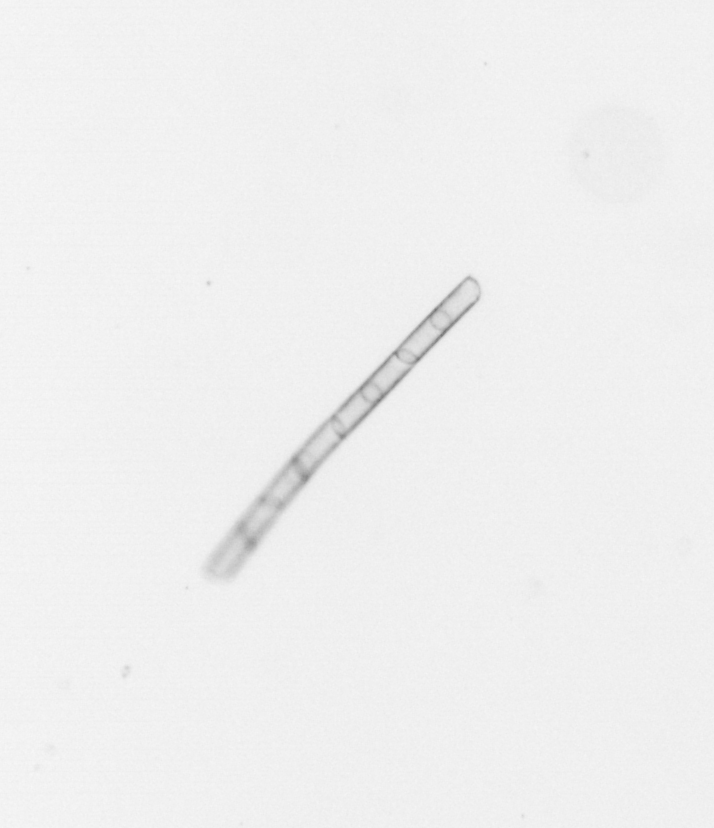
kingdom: Chromista
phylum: Ochrophyta
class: Bacillariophyceae
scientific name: Bacillariophyceae
